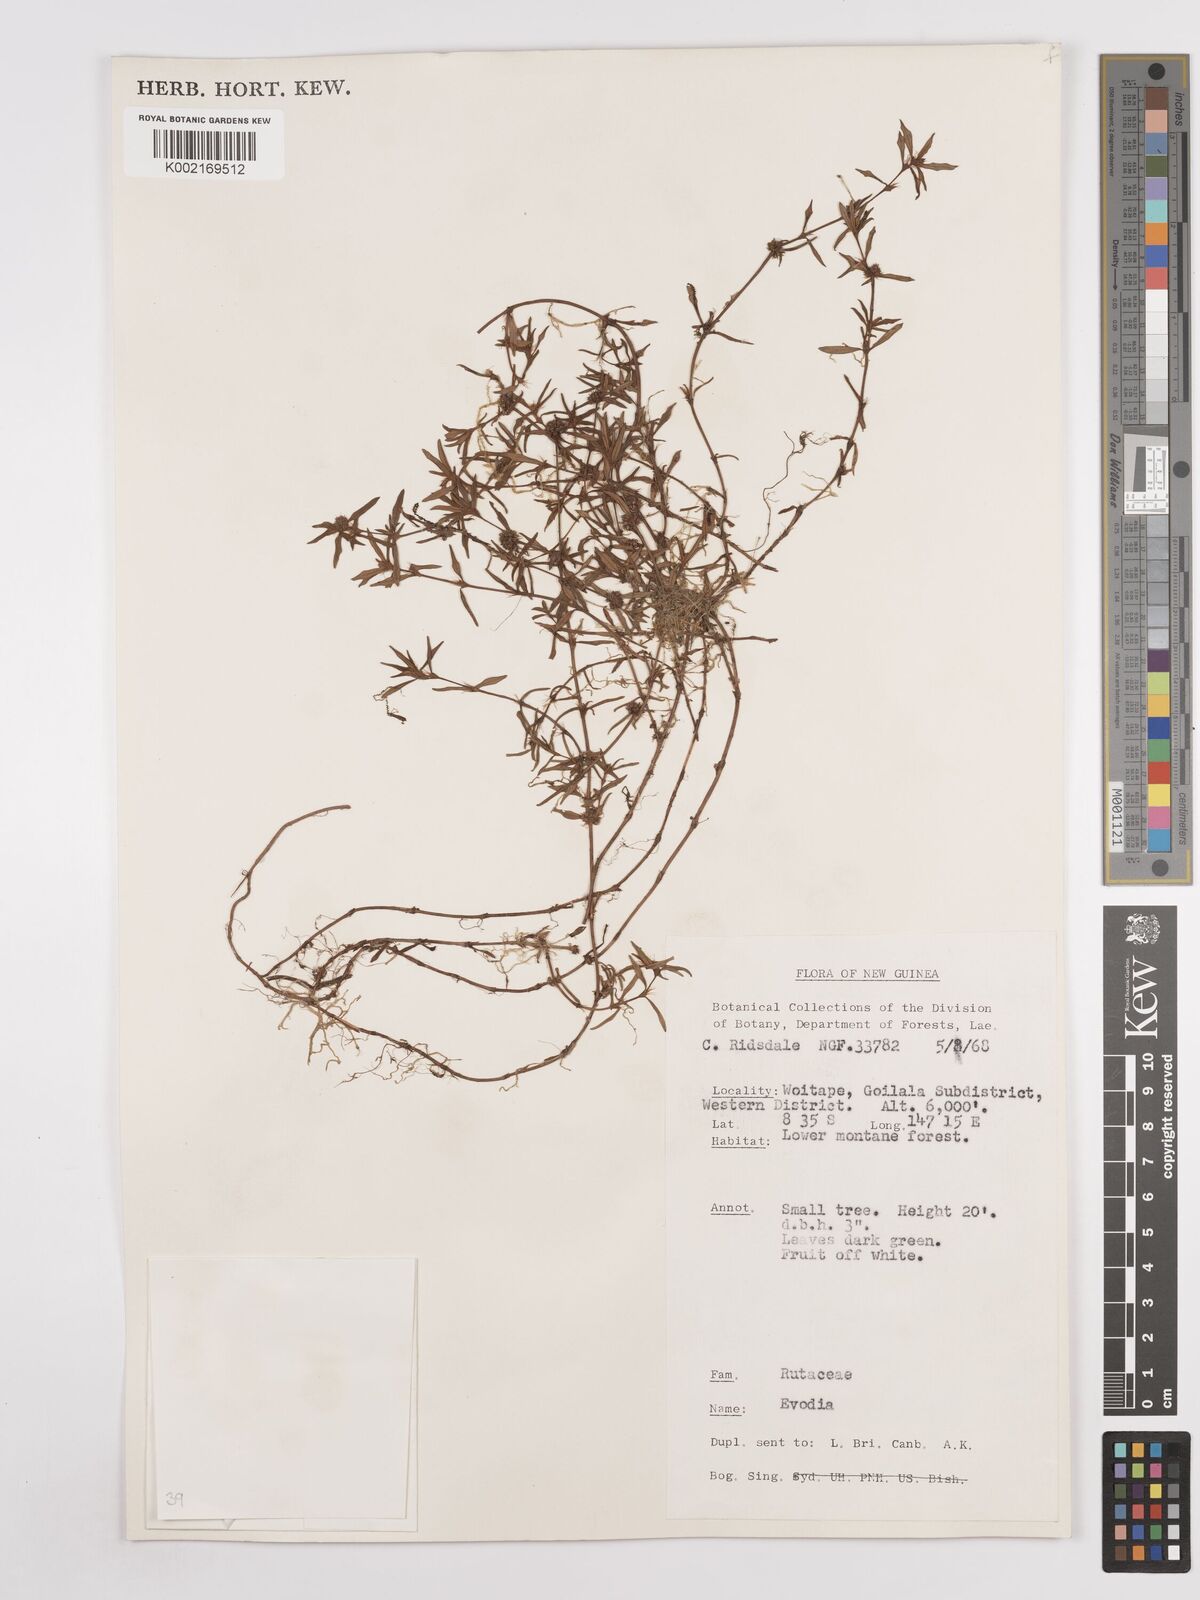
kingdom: Plantae
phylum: Tracheophyta
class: Magnoliopsida
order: Sapindales
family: Rutaceae
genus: Euodia
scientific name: Euodia
